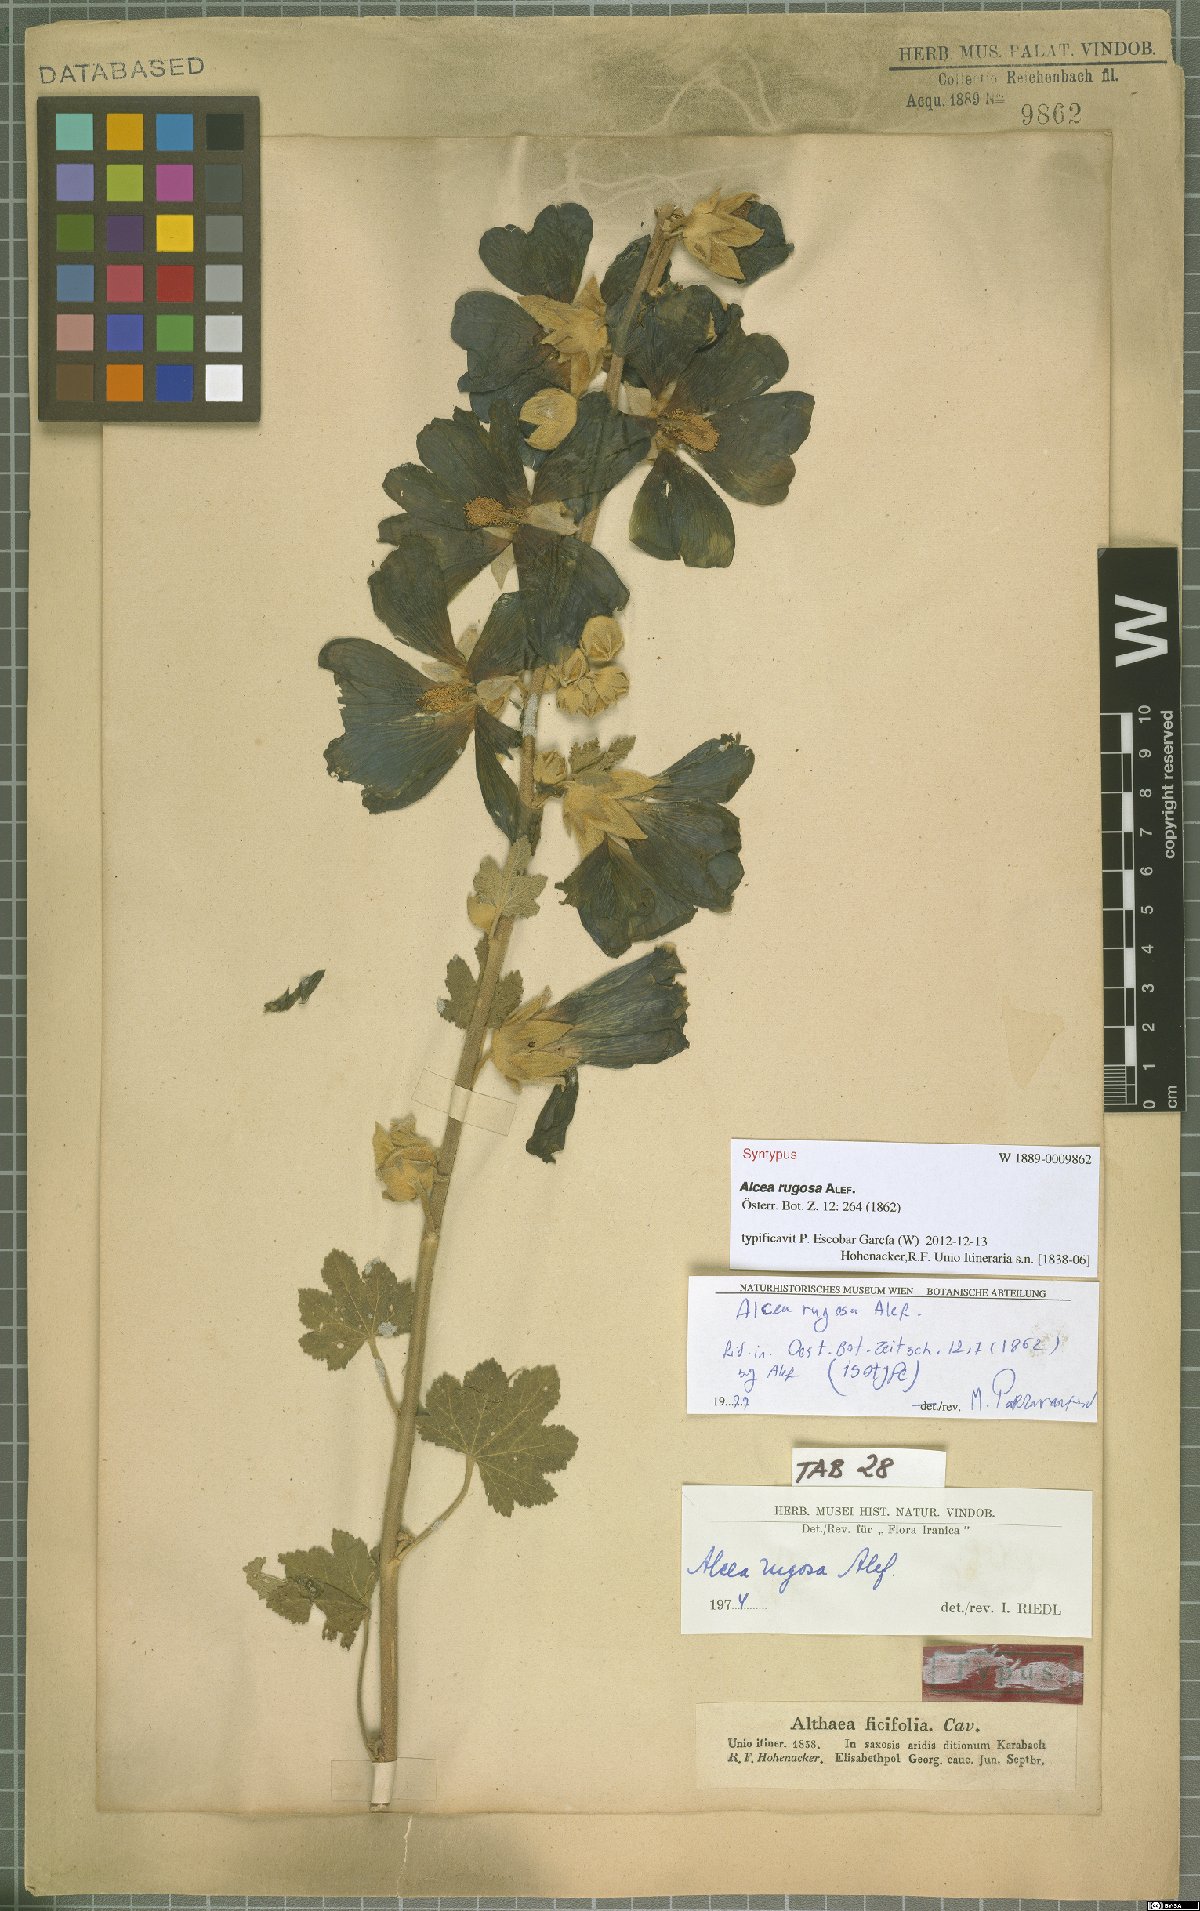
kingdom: Plantae
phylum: Tracheophyta
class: Magnoliopsida
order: Malvales
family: Malvaceae
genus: Alcea
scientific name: Alcea rugosa
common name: Russian hollyhock
